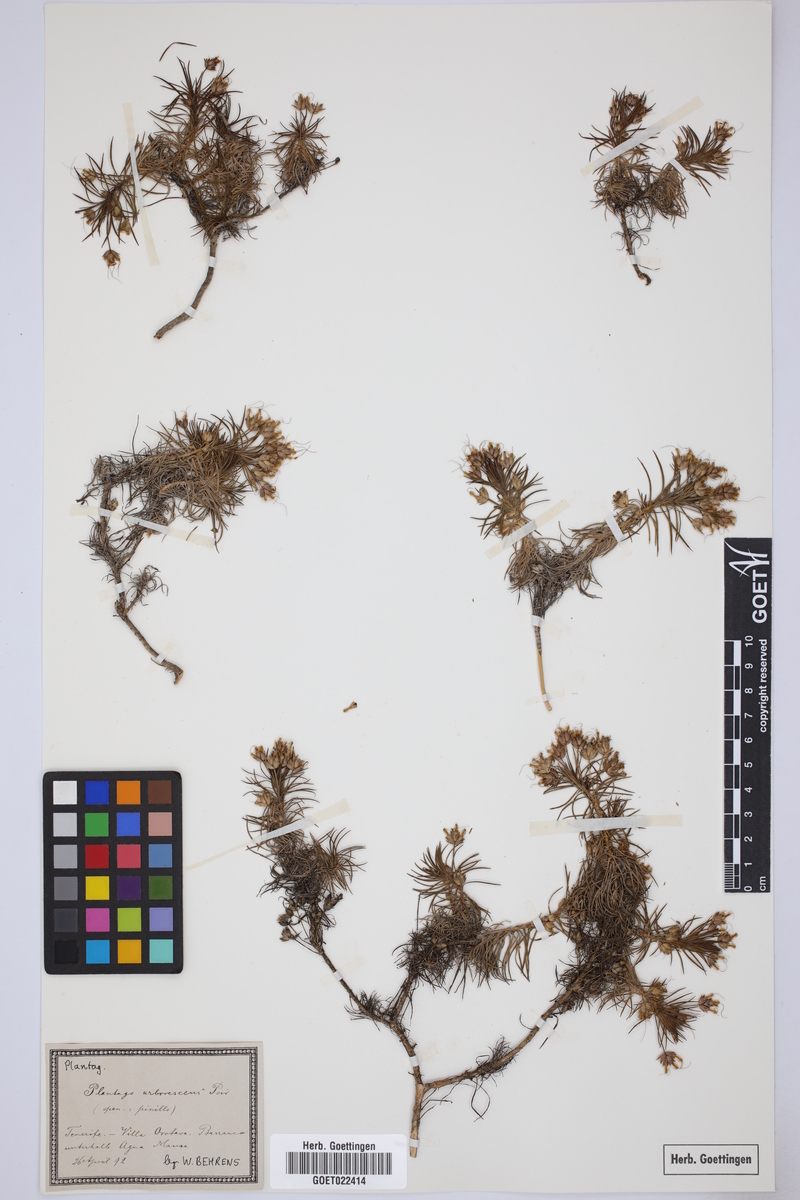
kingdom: Plantae
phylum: Tracheophyta
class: Magnoliopsida
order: Lamiales
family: Plantaginaceae
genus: Plantago
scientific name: Plantago arborescens
